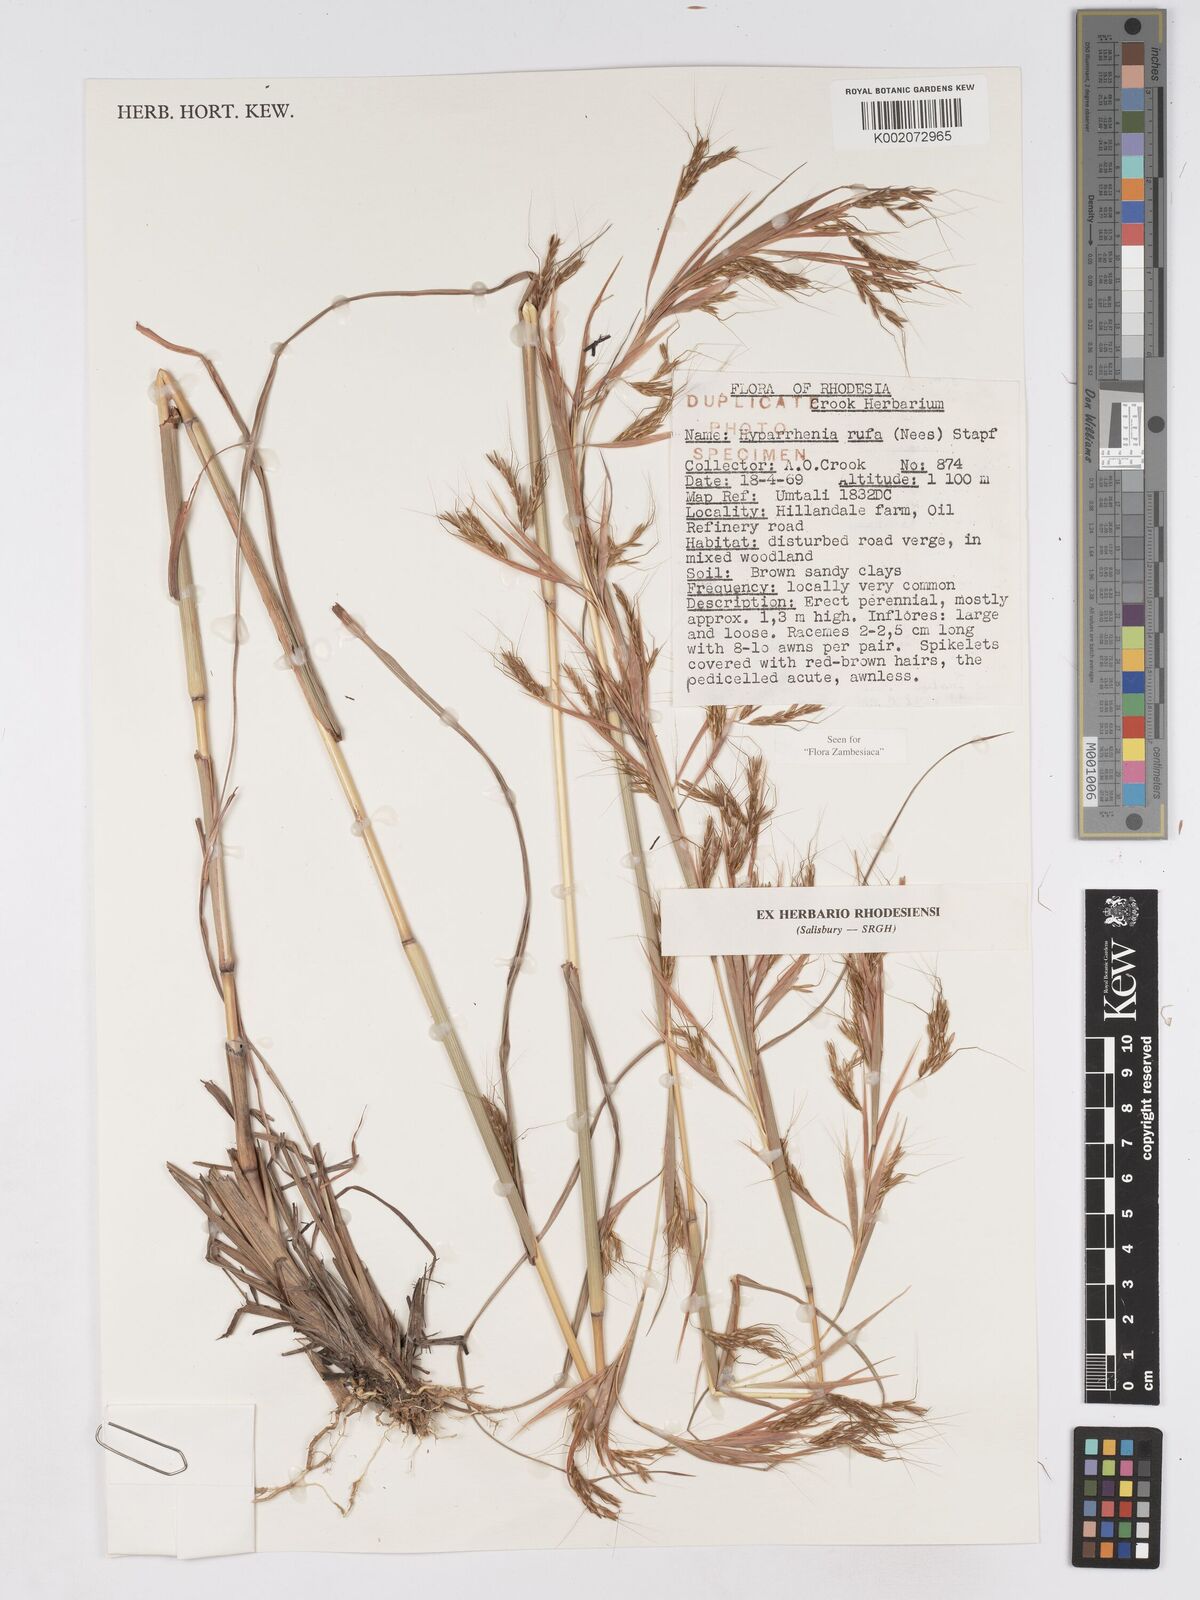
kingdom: Plantae
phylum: Tracheophyta
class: Liliopsida
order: Poales
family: Poaceae
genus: Hyparrhenia
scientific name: Hyparrhenia rufa
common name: Jaraguagrass
